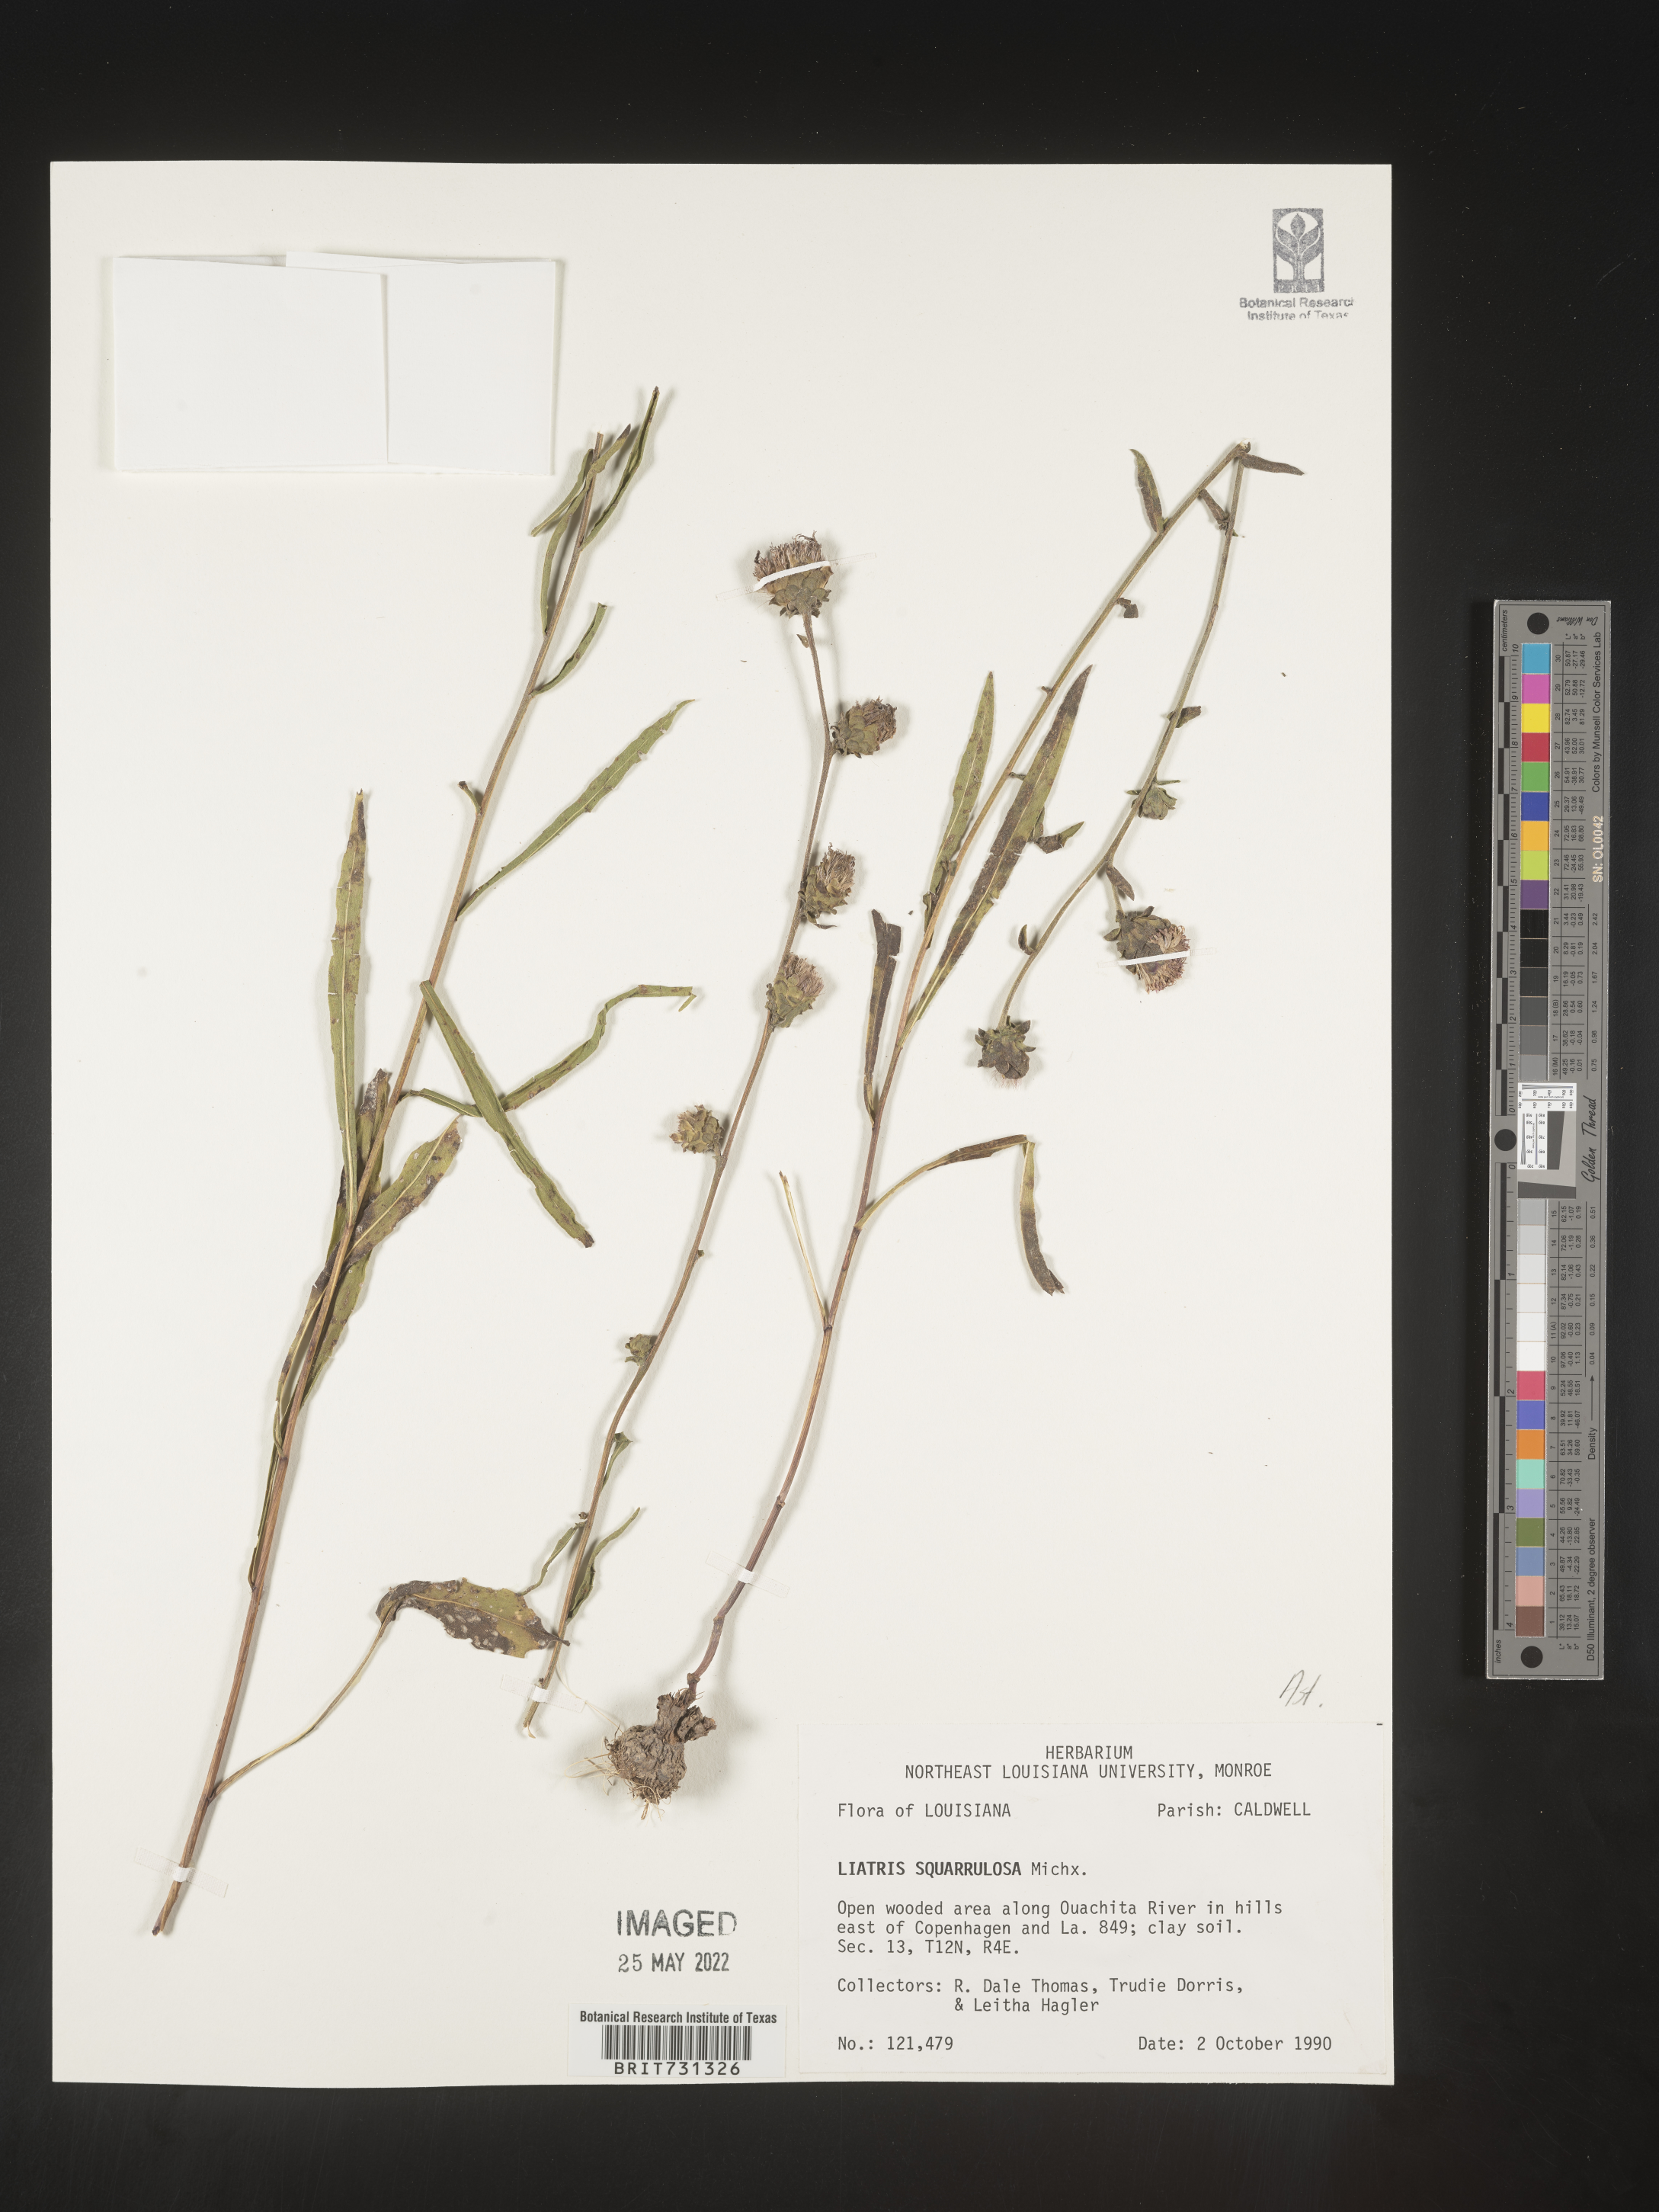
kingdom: Plantae
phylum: Tracheophyta
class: Magnoliopsida
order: Asterales
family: Asteraceae
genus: Liatris
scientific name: Liatris squarrulosa
